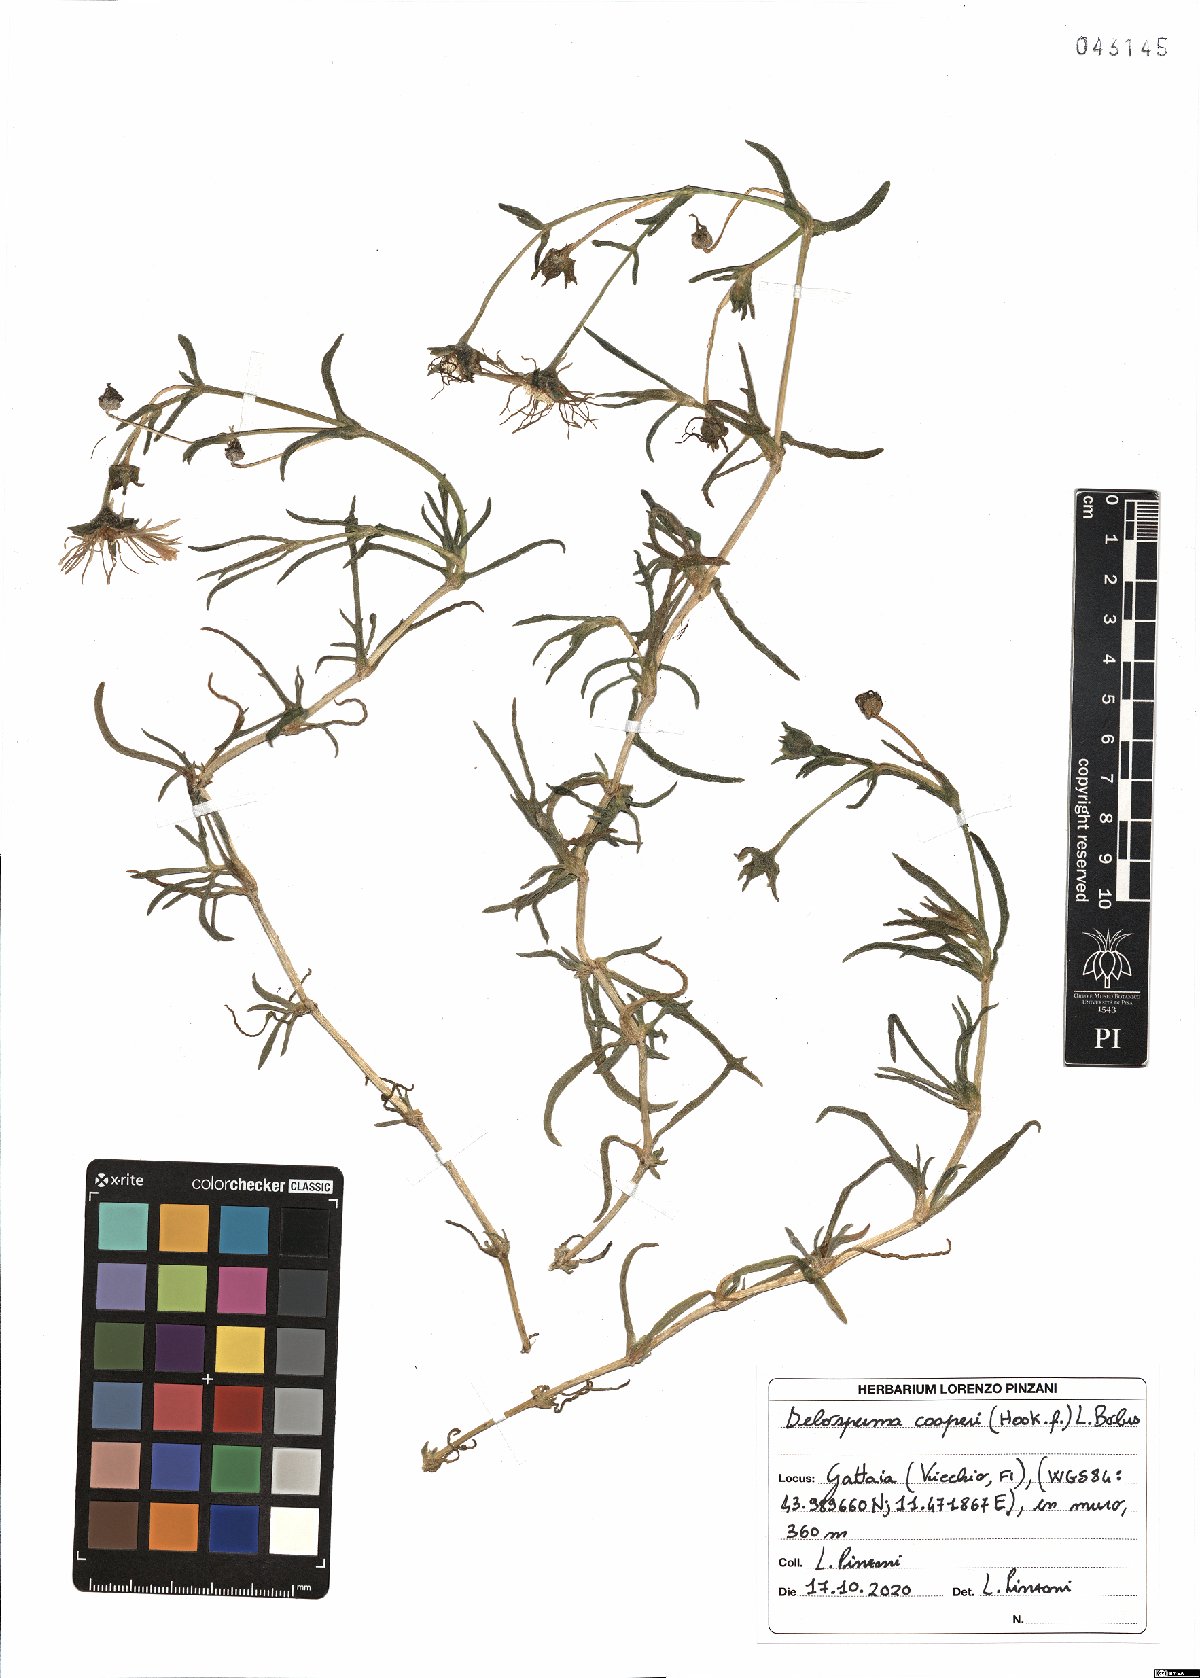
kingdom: Plantae
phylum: Tracheophyta
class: Magnoliopsida
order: Caryophyllales
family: Aizoaceae
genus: Delosperma
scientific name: Delosperma cooperi
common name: Hardy iceplant
